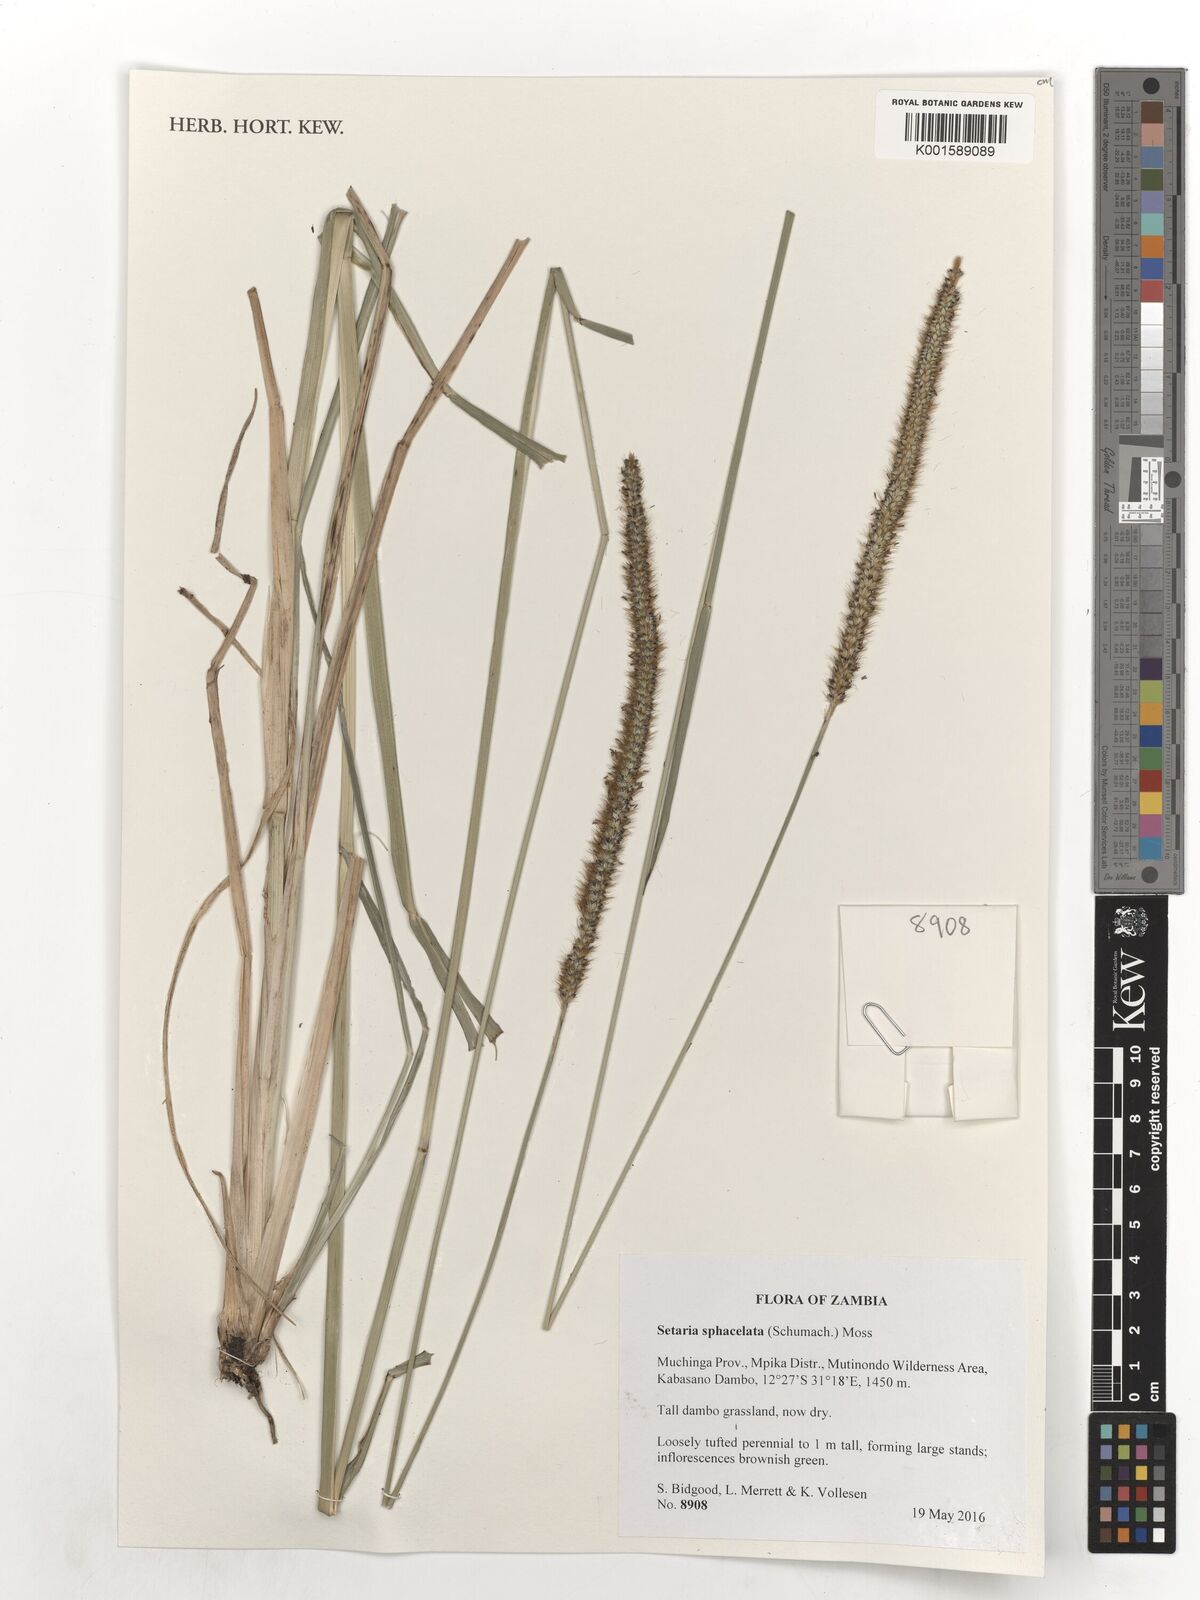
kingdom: Plantae
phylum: Tracheophyta
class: Liliopsida
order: Poales
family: Poaceae
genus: Setaria
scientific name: Setaria sphacelata
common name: African bristlegrass
